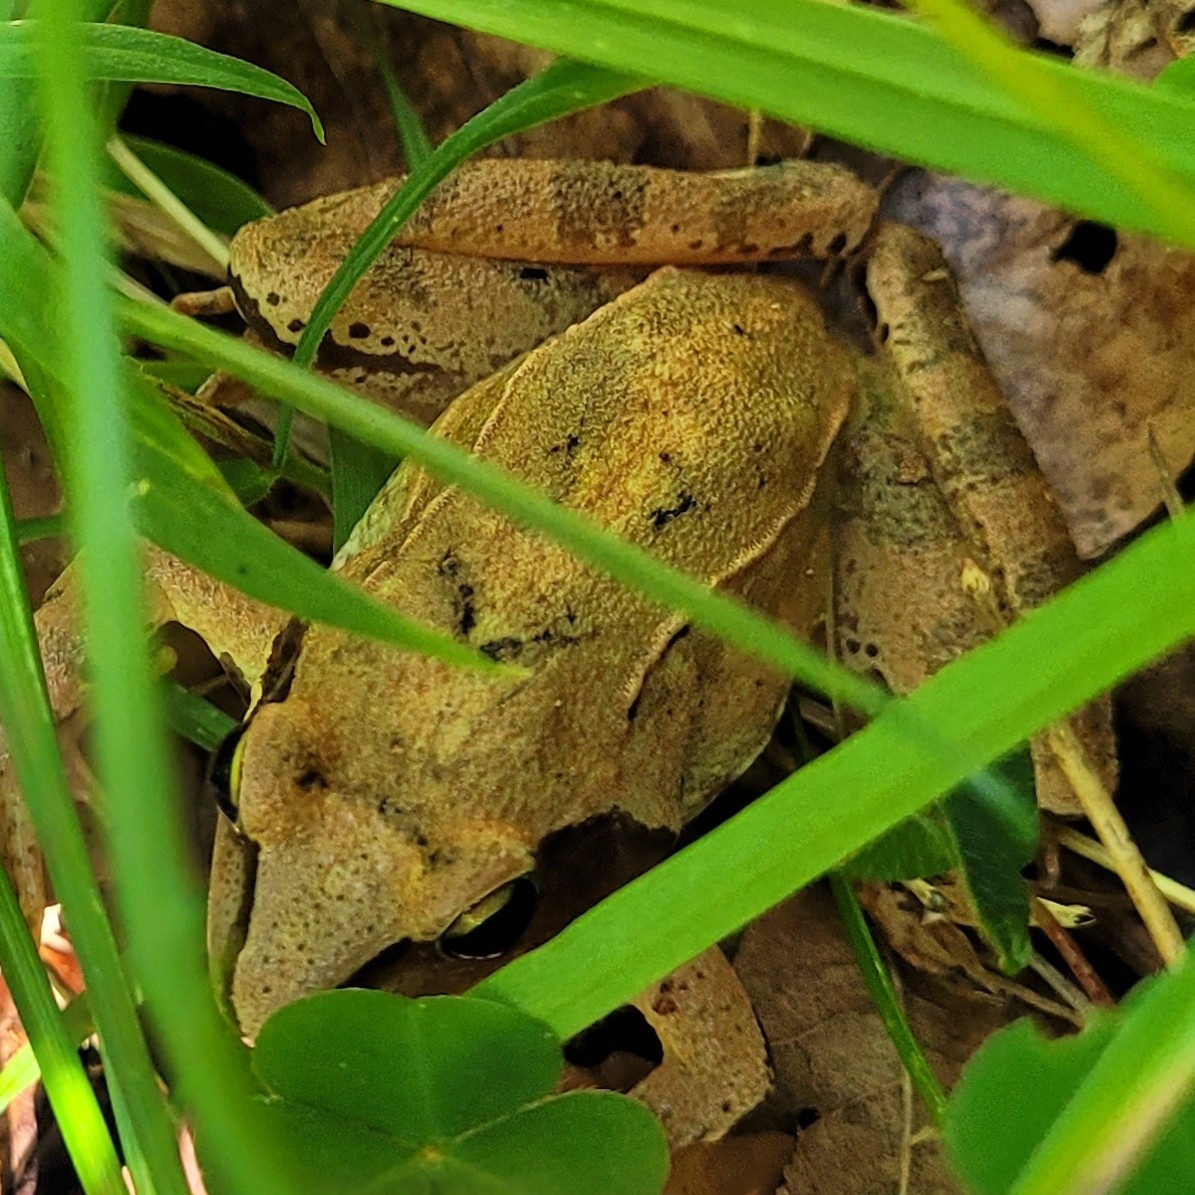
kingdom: Animalia
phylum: Chordata
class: Amphibia
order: Anura
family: Ranidae
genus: Rana
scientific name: Rana dalmatina
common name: Springfrø
